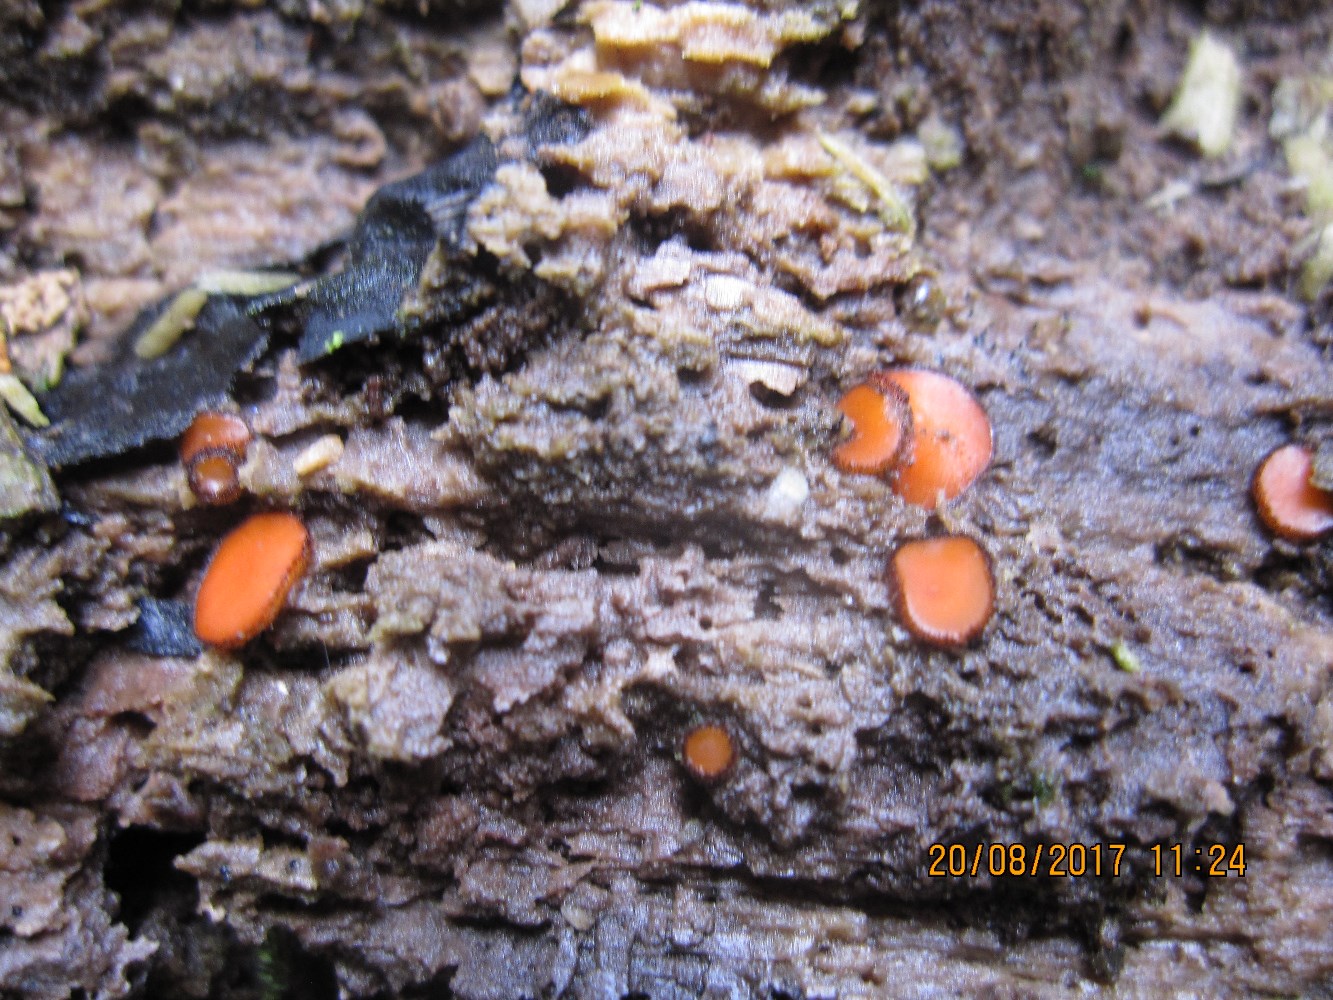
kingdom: Fungi
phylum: Ascomycota
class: Pezizomycetes
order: Pezizales
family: Pyronemataceae
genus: Scutellinia
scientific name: Scutellinia hirta
